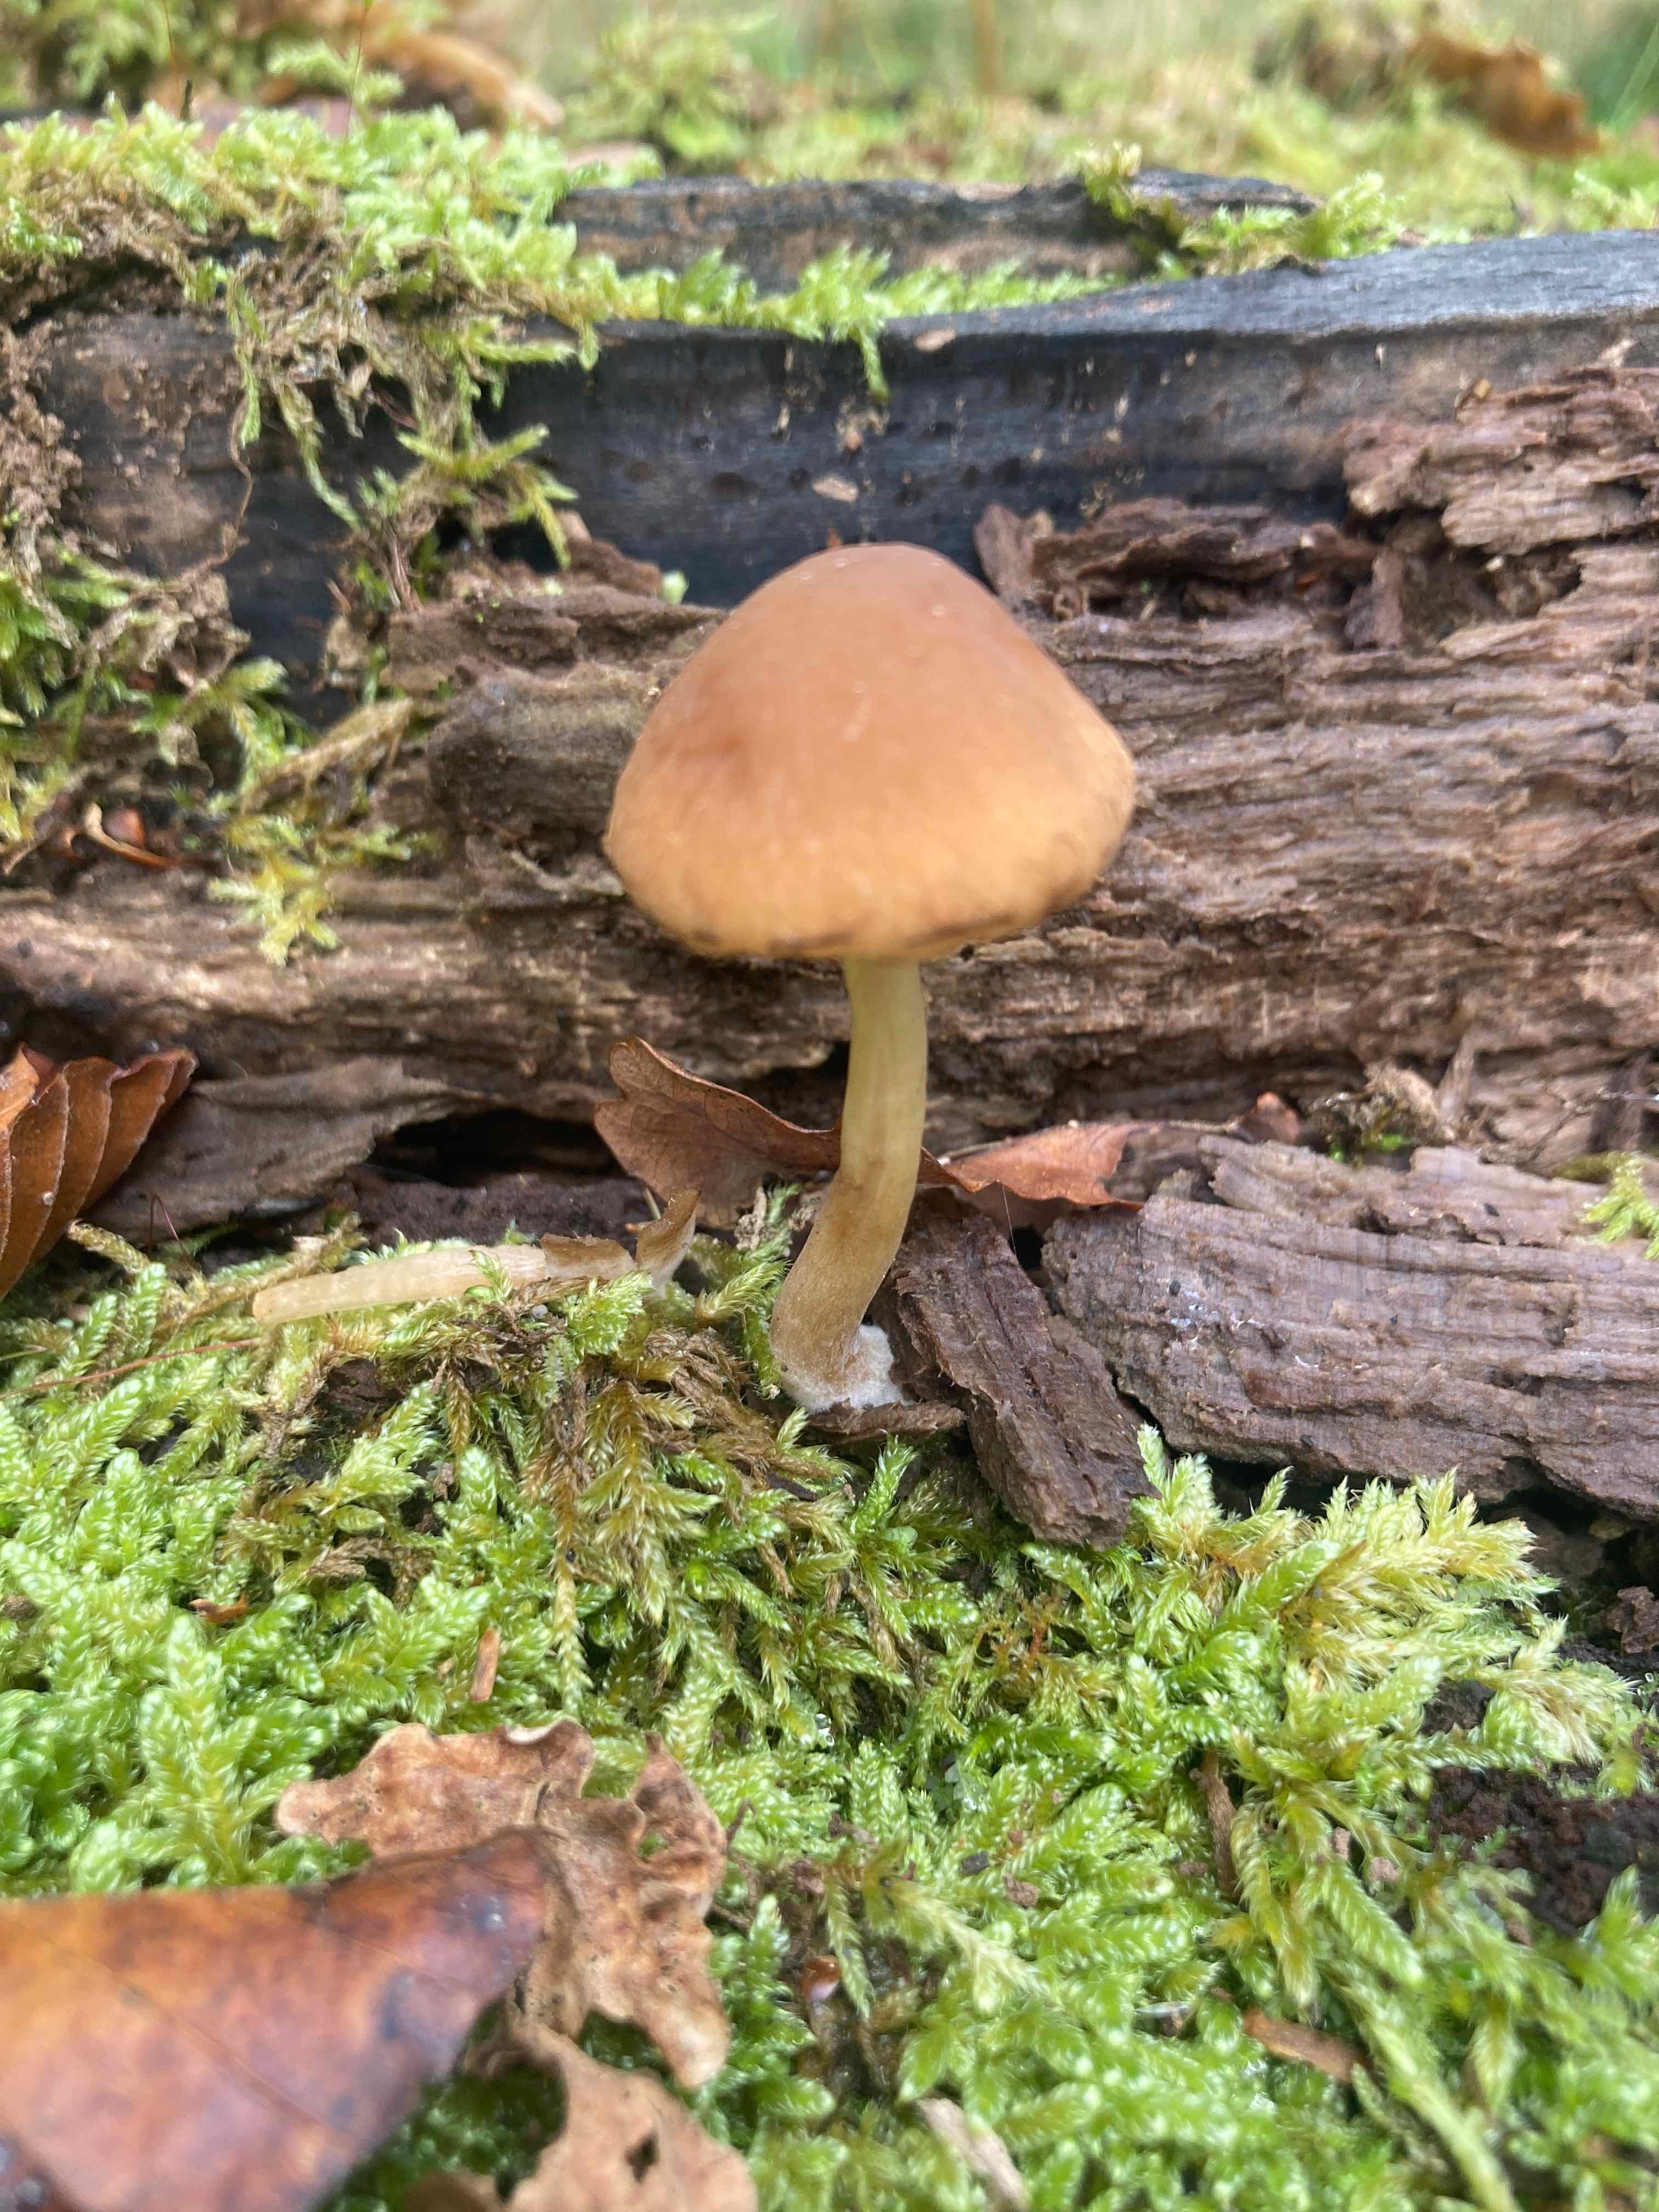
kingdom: Fungi
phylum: Basidiomycota
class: Agaricomycetes
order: Agaricales
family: Psathyrellaceae
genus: Psathyrella
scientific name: Psathyrella piluliformis
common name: lysstokket mørkhat
